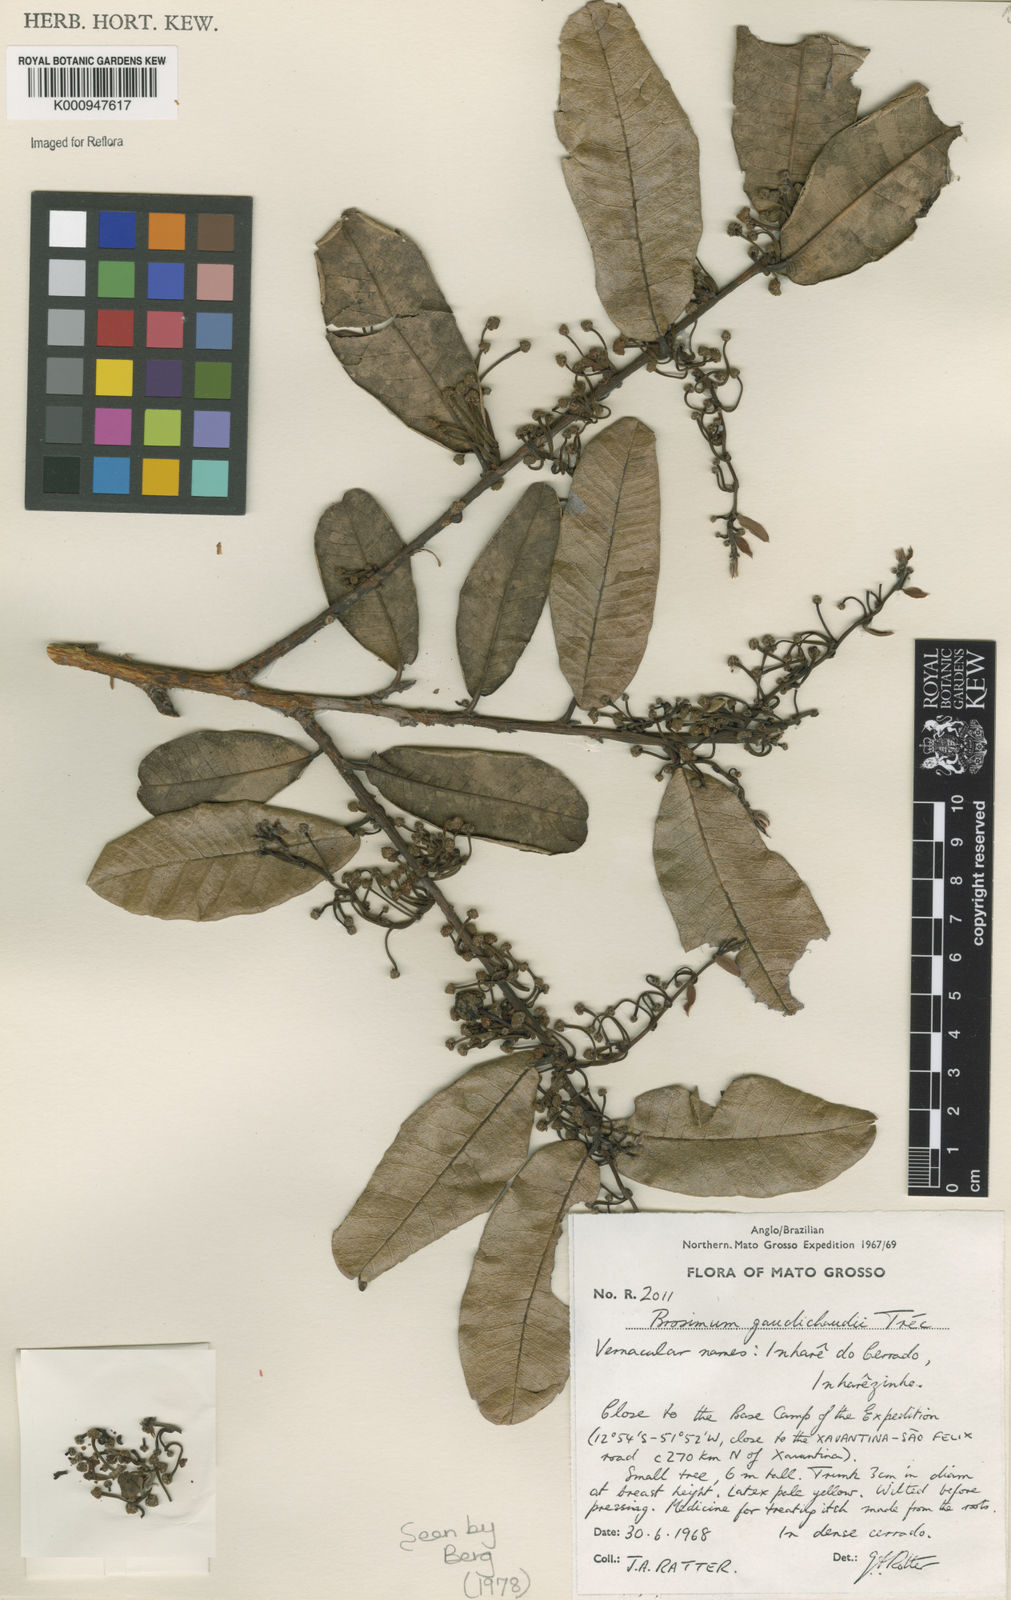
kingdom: Plantae
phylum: Tracheophyta
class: Magnoliopsida
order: Rosales
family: Moraceae
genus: Brosimum
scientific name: Brosimum
